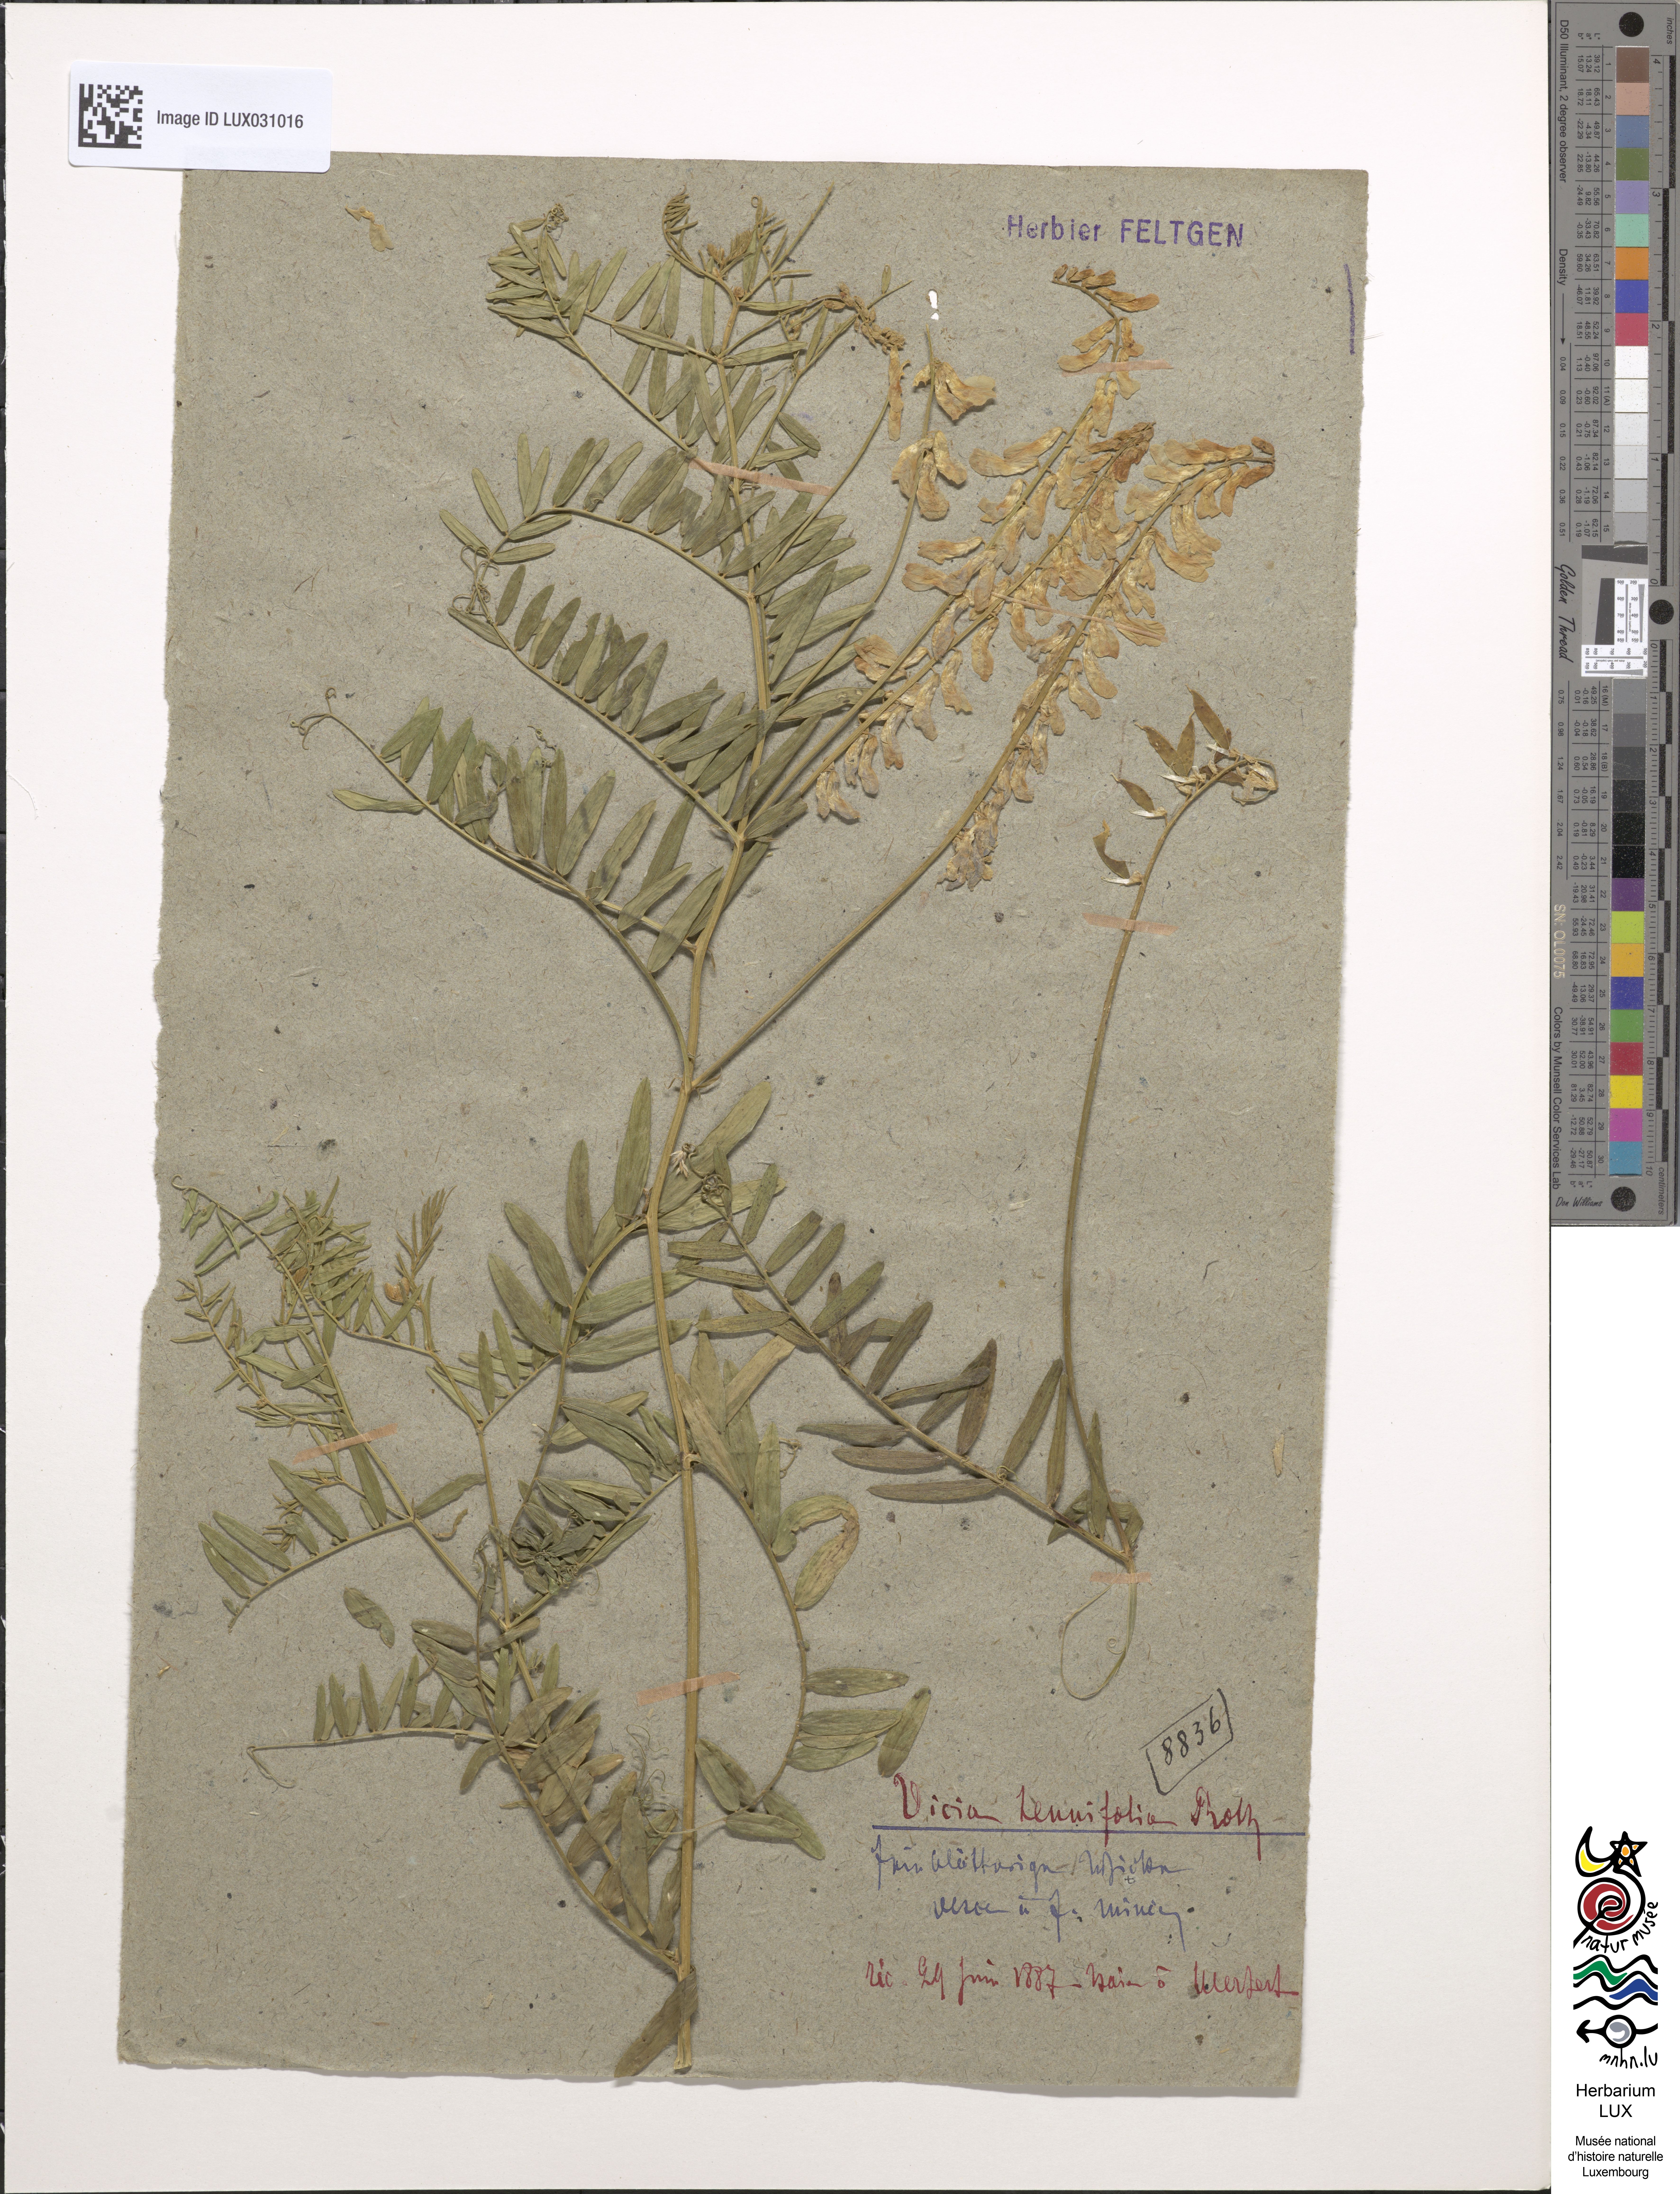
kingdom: Plantae
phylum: Tracheophyta
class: Magnoliopsida
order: Fabales
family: Fabaceae
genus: Vicia
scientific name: Vicia tenuifolia
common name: Fine-leaved vetch
